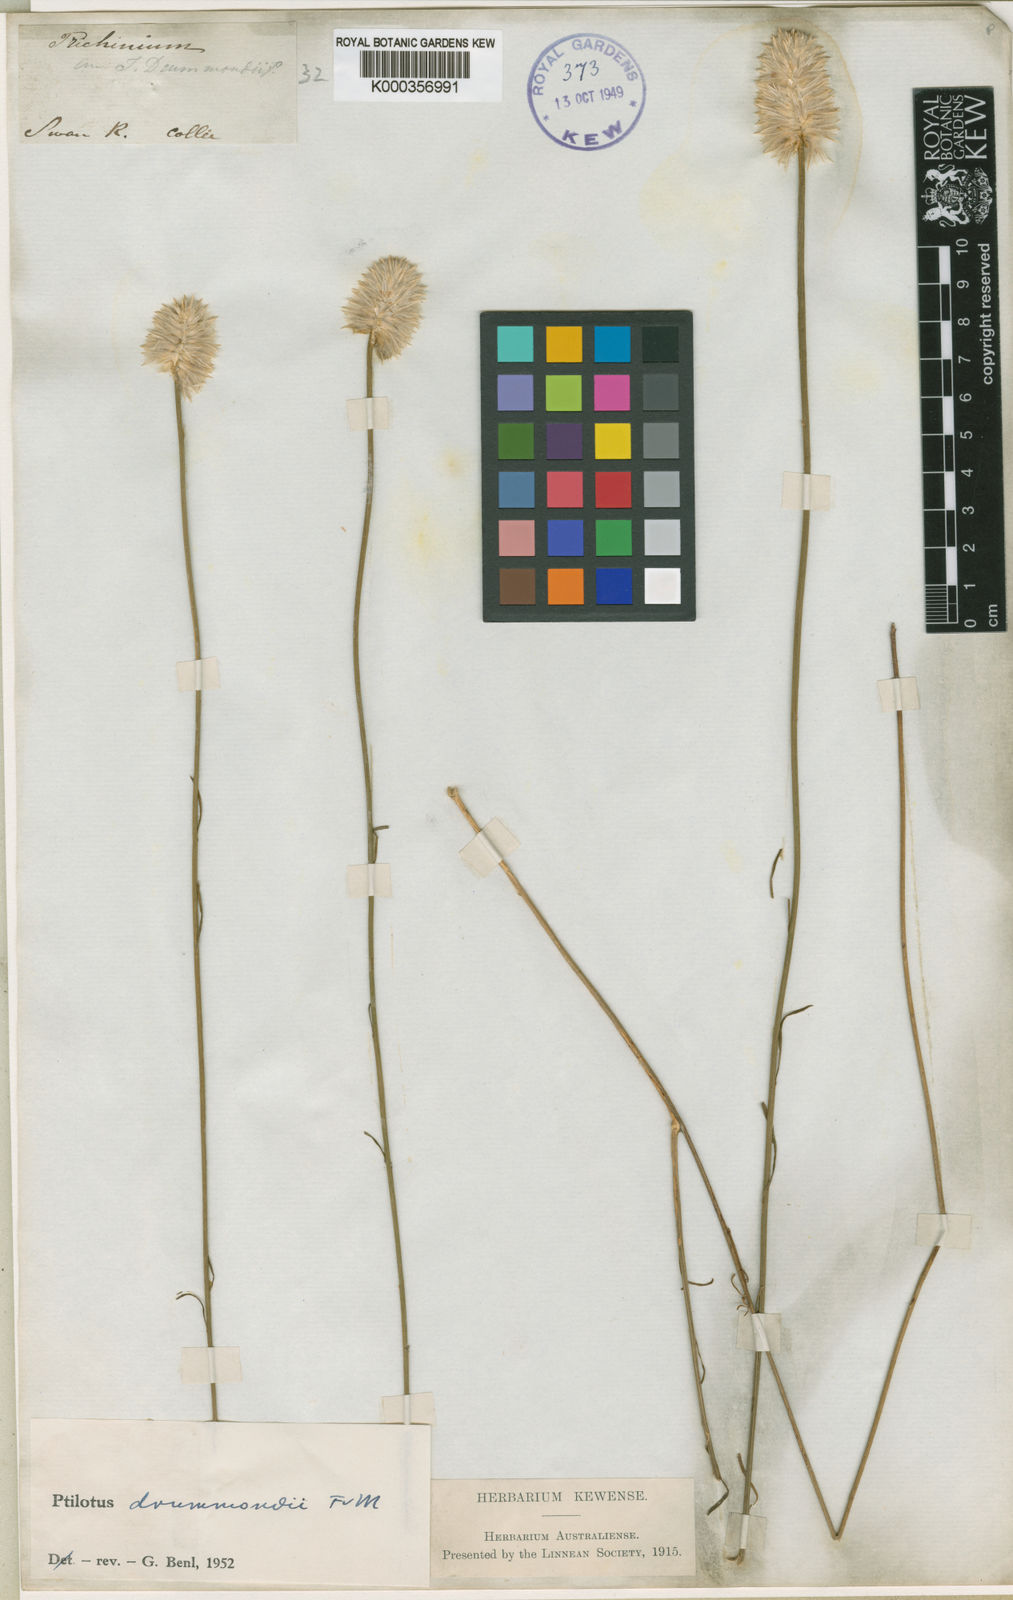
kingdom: Plantae
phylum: Tracheophyta
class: Magnoliopsida
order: Caryophyllales
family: Amaranthaceae
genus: Ptilotus
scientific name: Ptilotus drummondii
